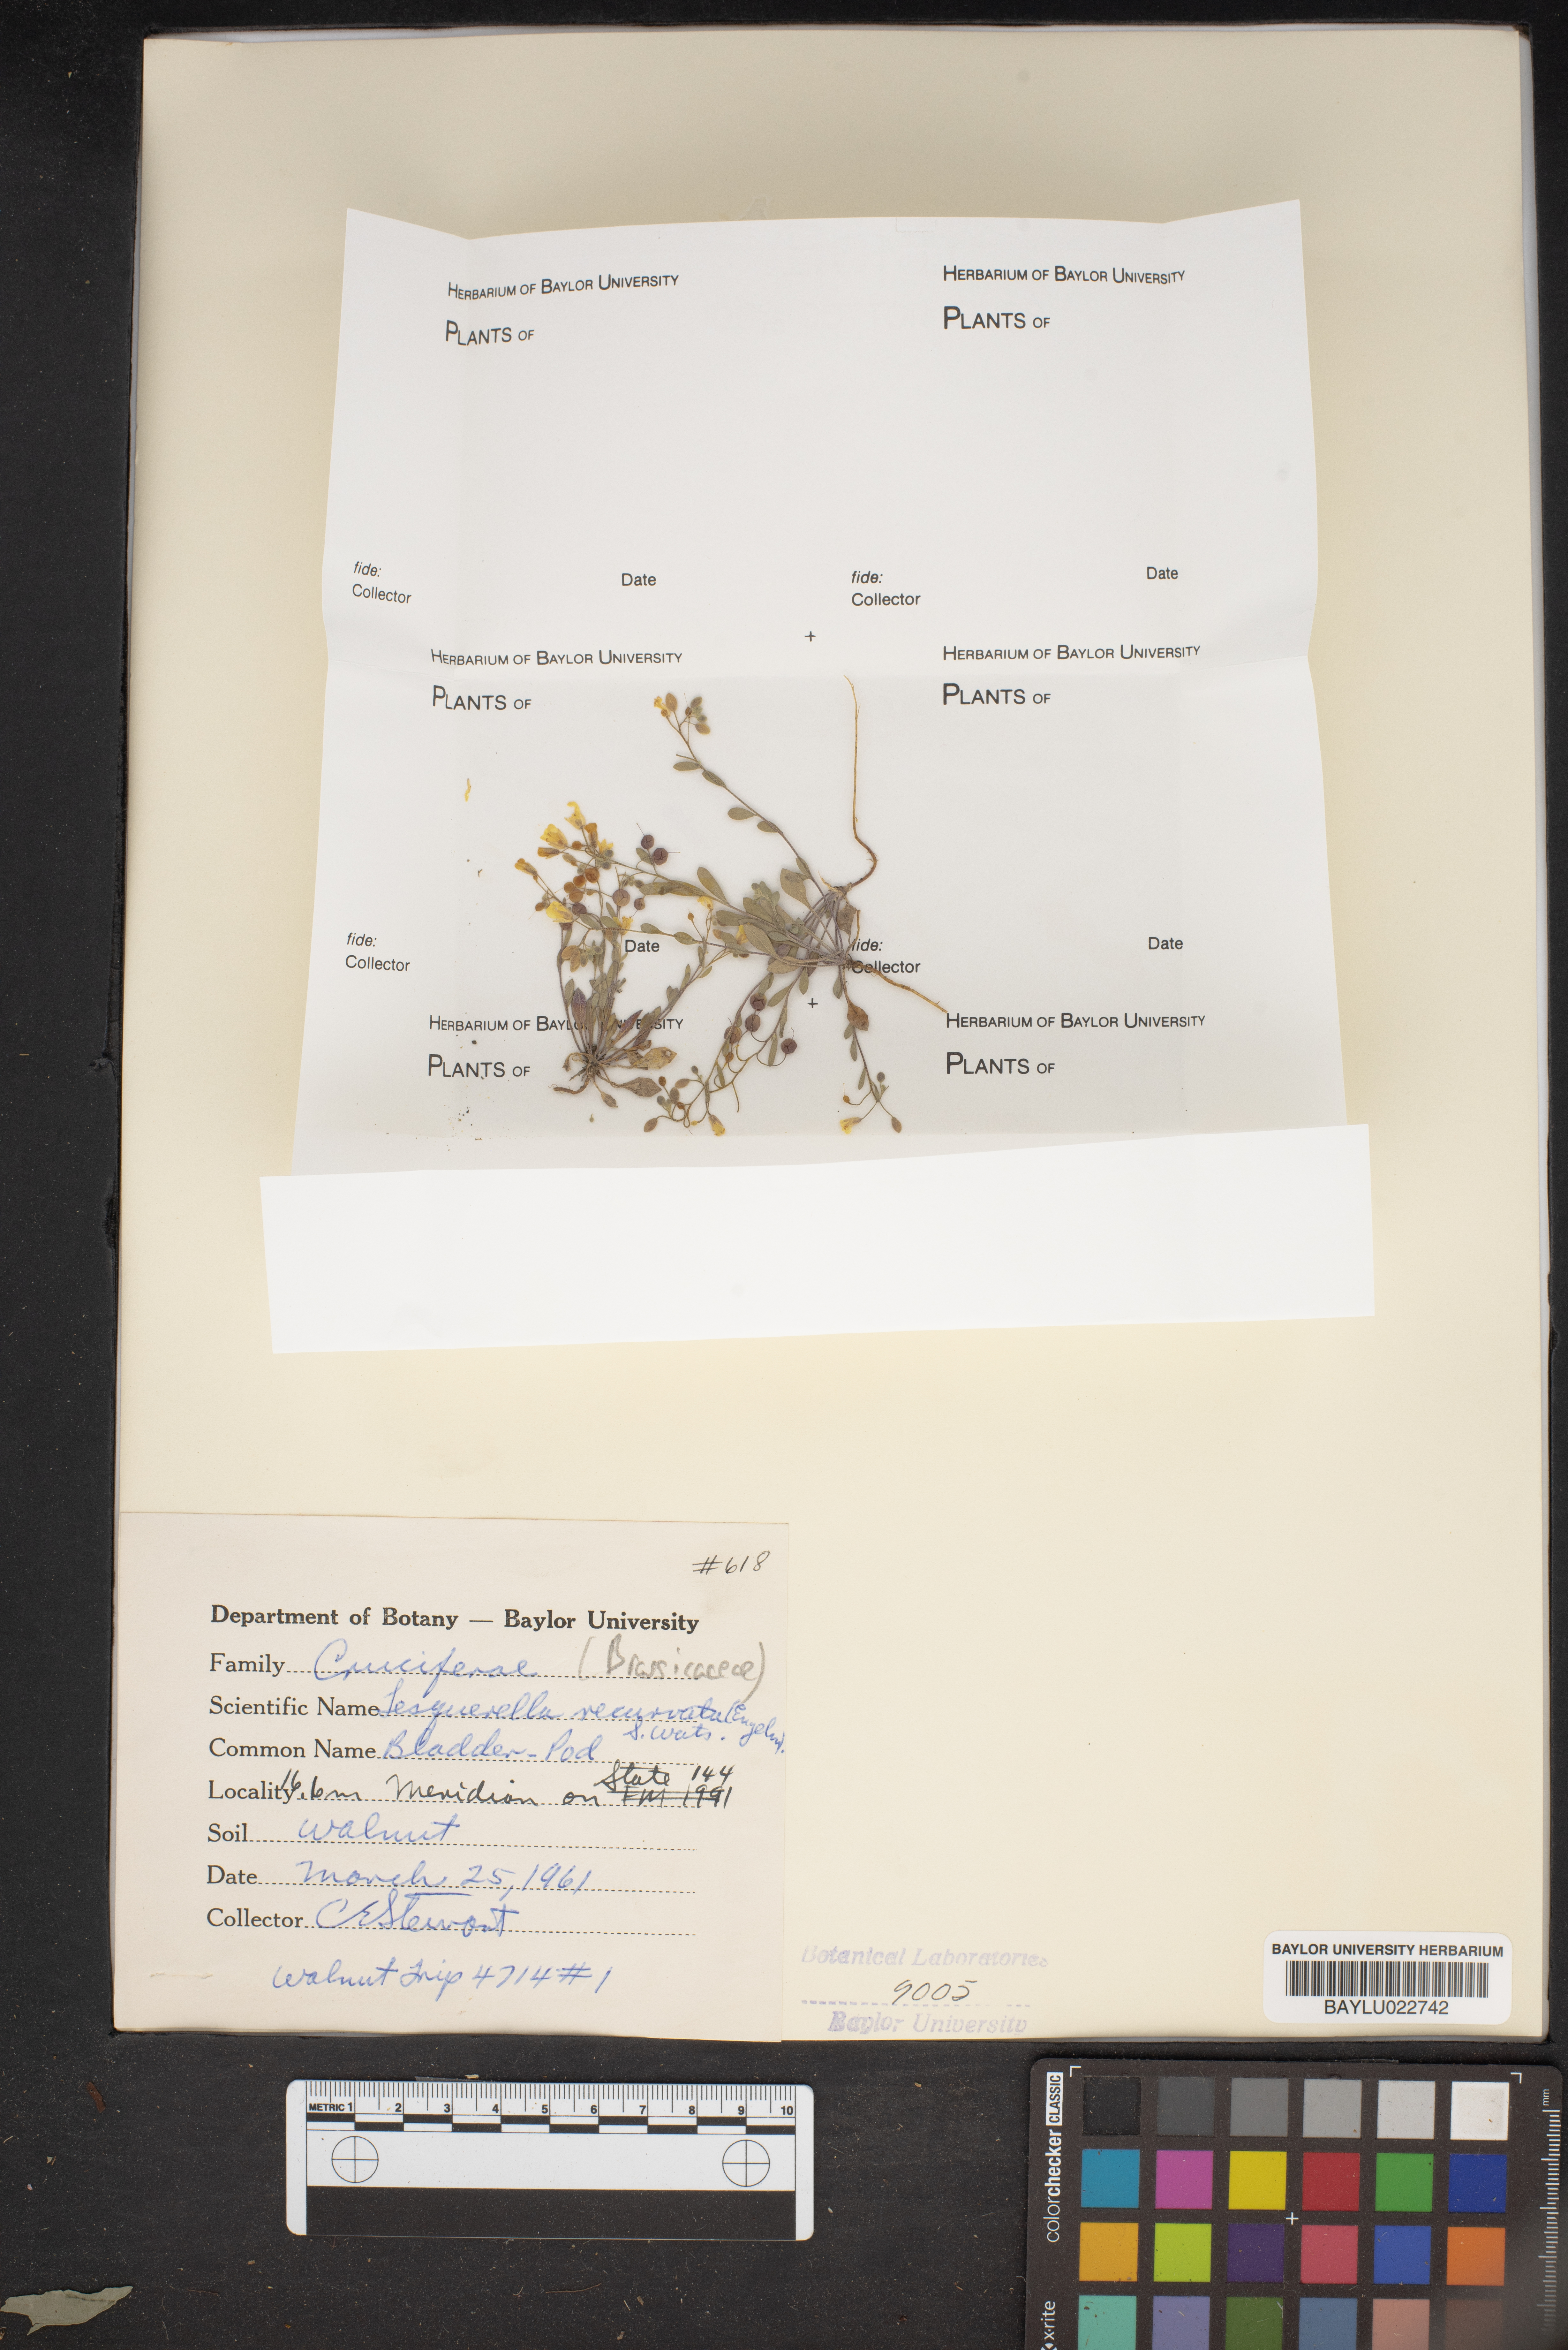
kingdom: Plantae
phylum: Tracheophyta
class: Magnoliopsida
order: Brassicales
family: Brassicaceae
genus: Physaria
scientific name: Physaria recurvata
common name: Gaslight bladderpod
